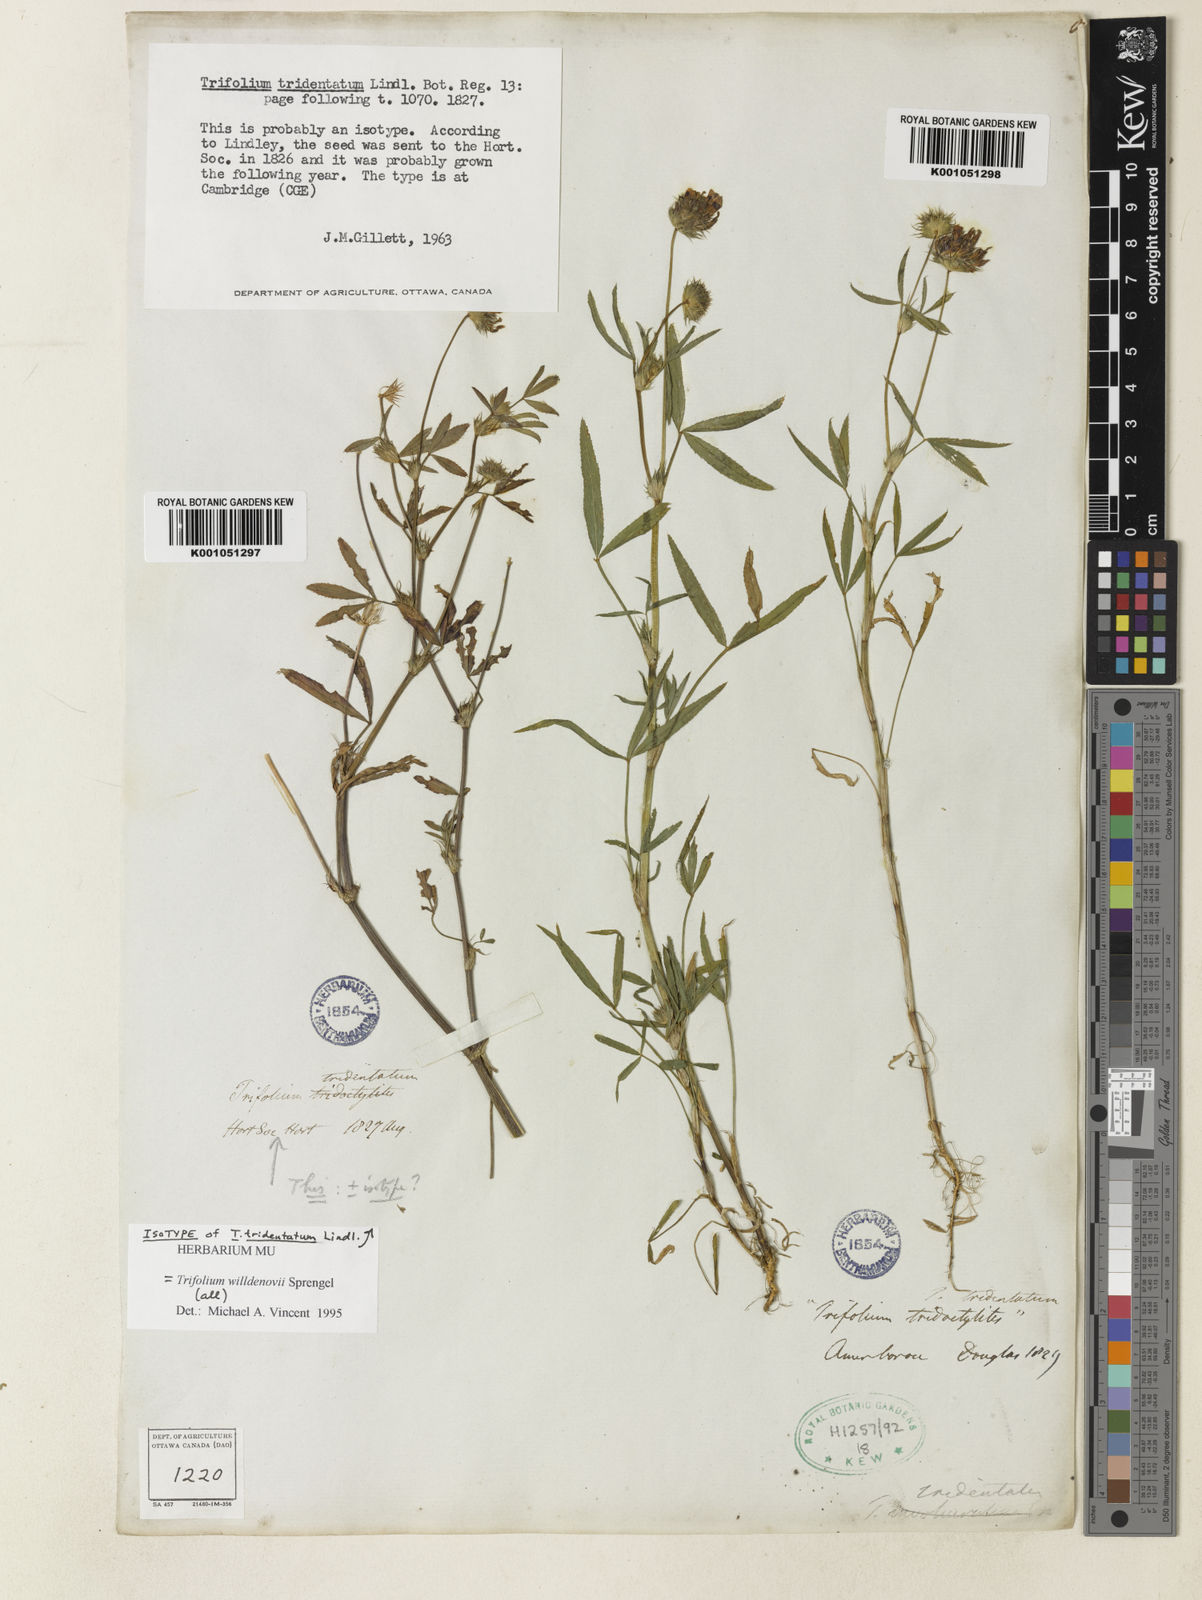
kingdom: Plantae
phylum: Tracheophyta
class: Magnoliopsida
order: Fabales
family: Fabaceae
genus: Trifolium
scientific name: Trifolium willdenovii
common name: Tomcat clover
